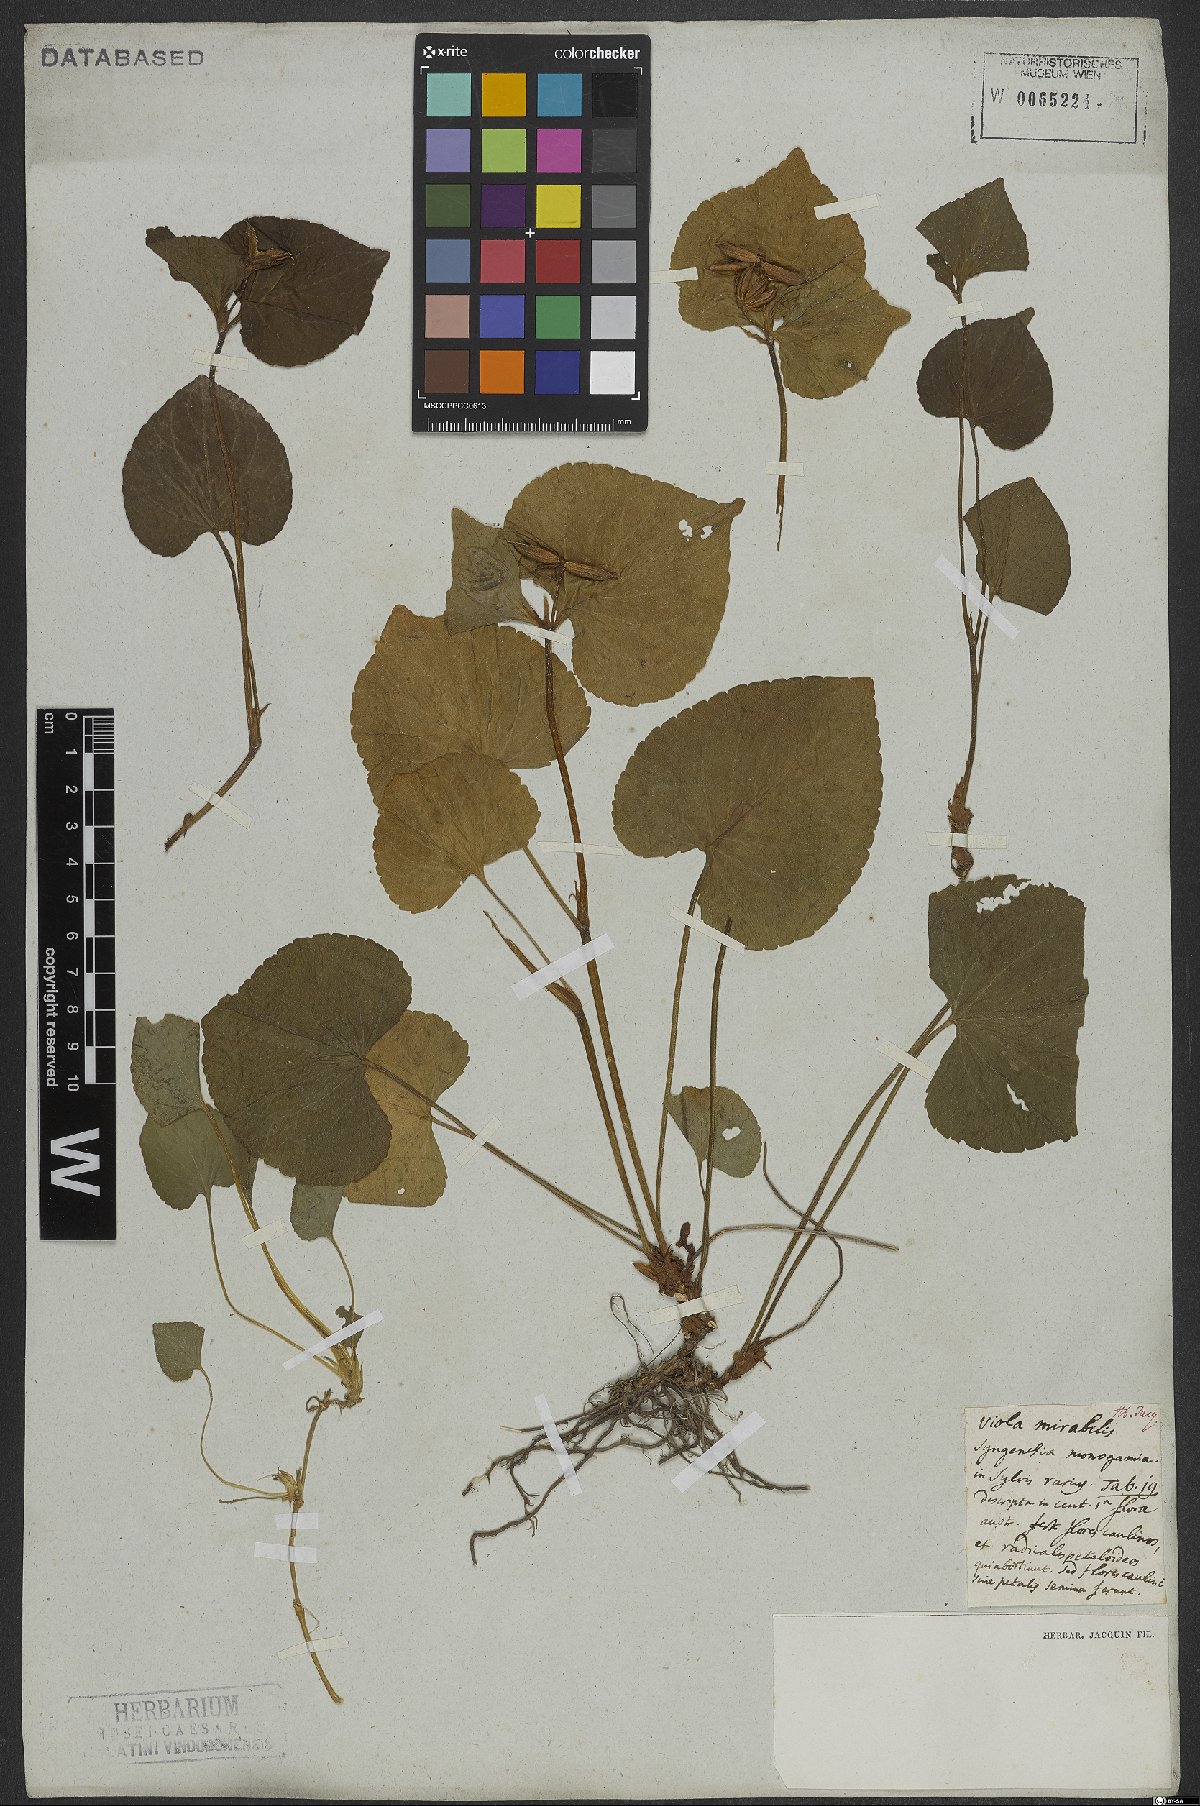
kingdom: Plantae
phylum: Tracheophyta
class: Magnoliopsida
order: Malpighiales
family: Violaceae
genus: Viola
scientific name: Viola mirabilis
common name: Wonder violet
